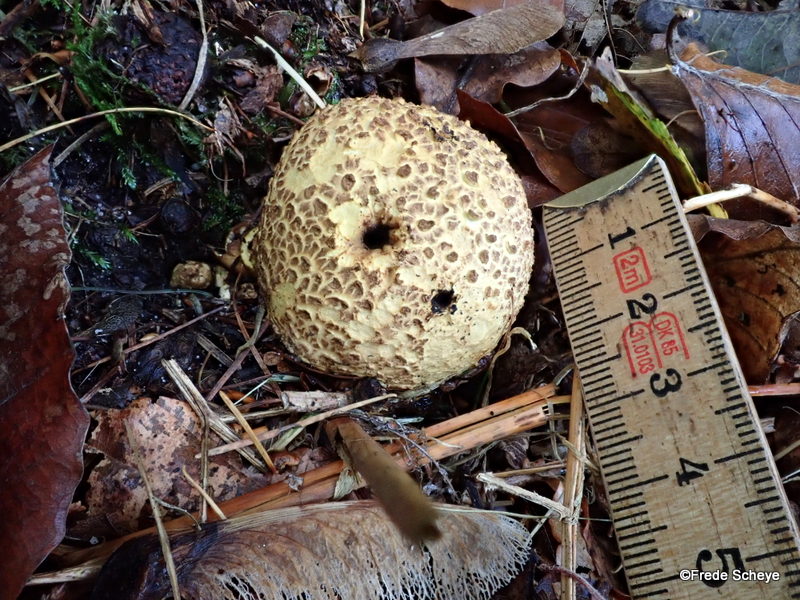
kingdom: Fungi
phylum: Basidiomycota
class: Agaricomycetes
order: Boletales
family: Sclerodermataceae
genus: Scleroderma
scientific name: Scleroderma citrinum
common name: almindelig bruskbold
